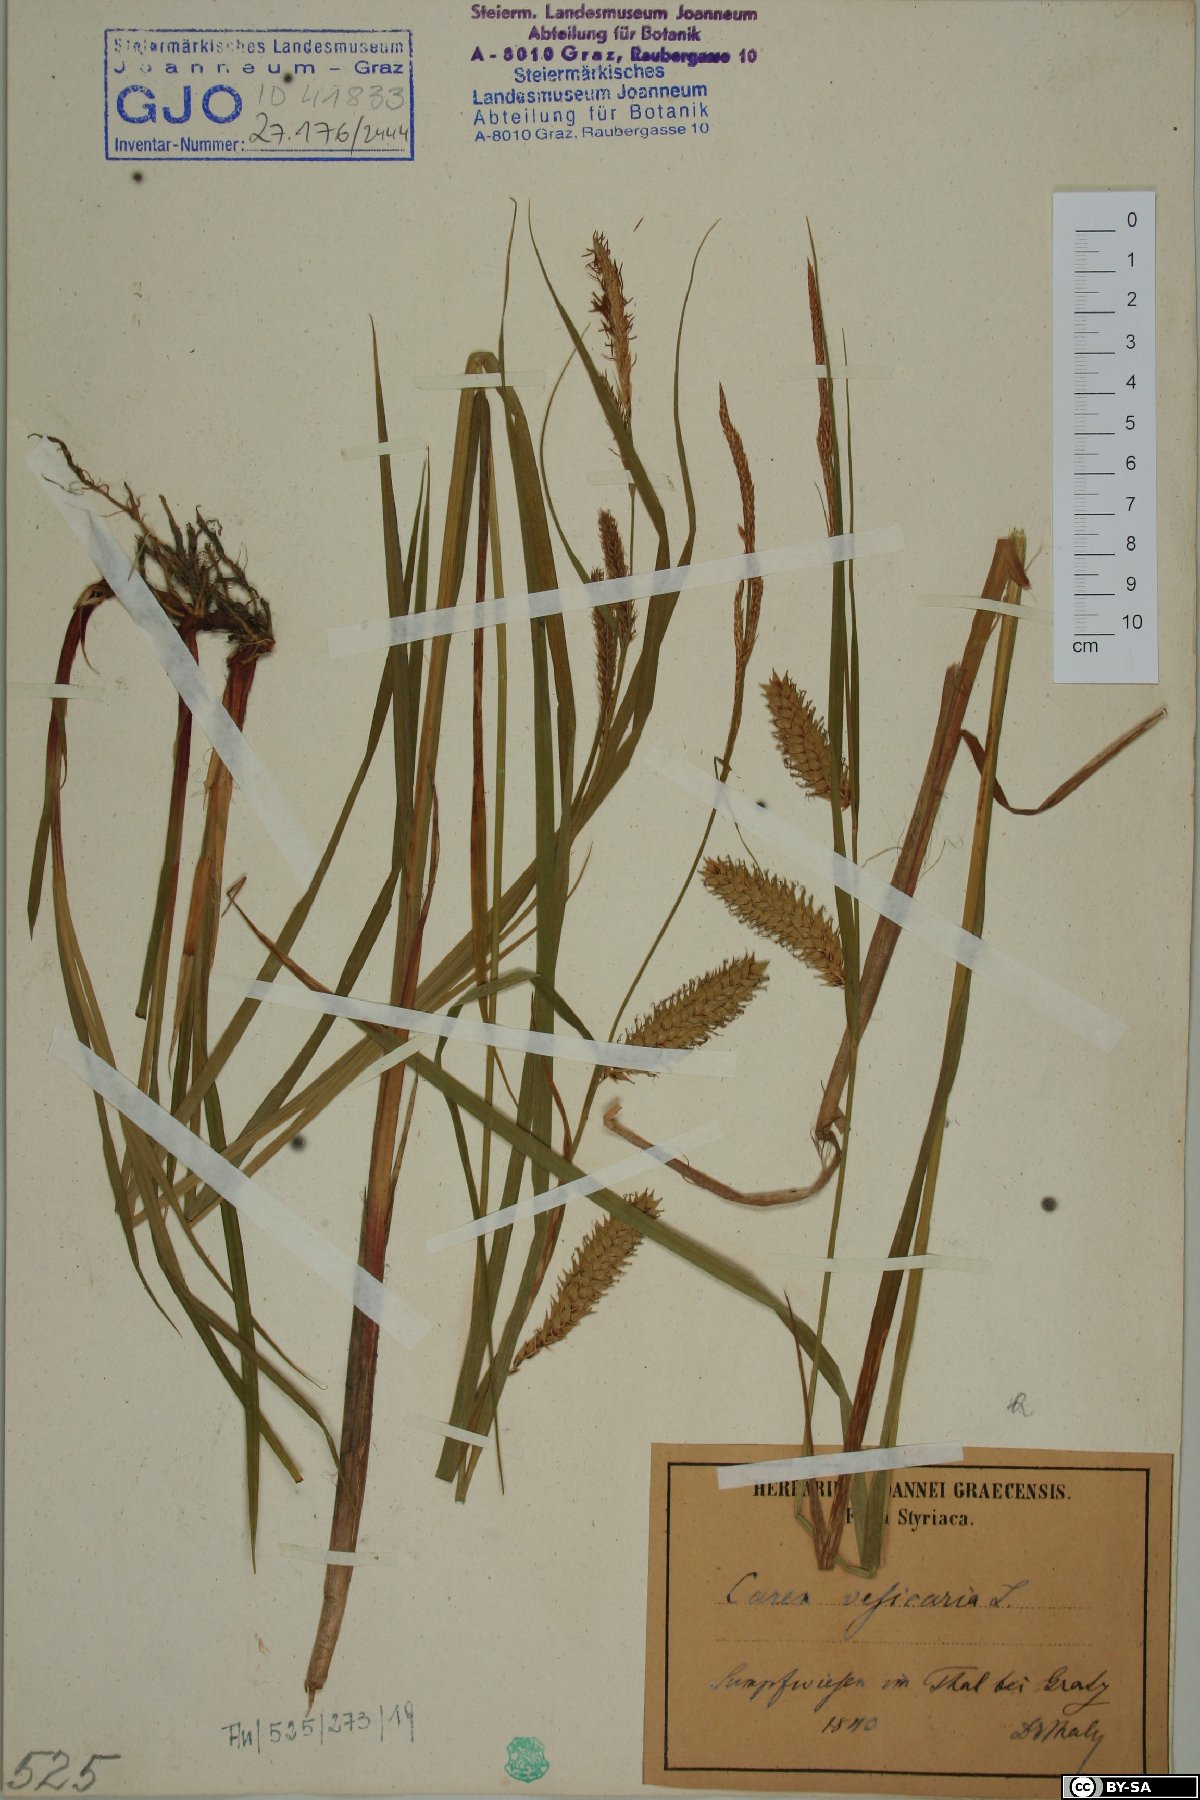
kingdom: Plantae
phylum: Tracheophyta
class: Liliopsida
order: Poales
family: Cyperaceae
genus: Carex
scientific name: Carex vesicaria
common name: Bladder-sedge
